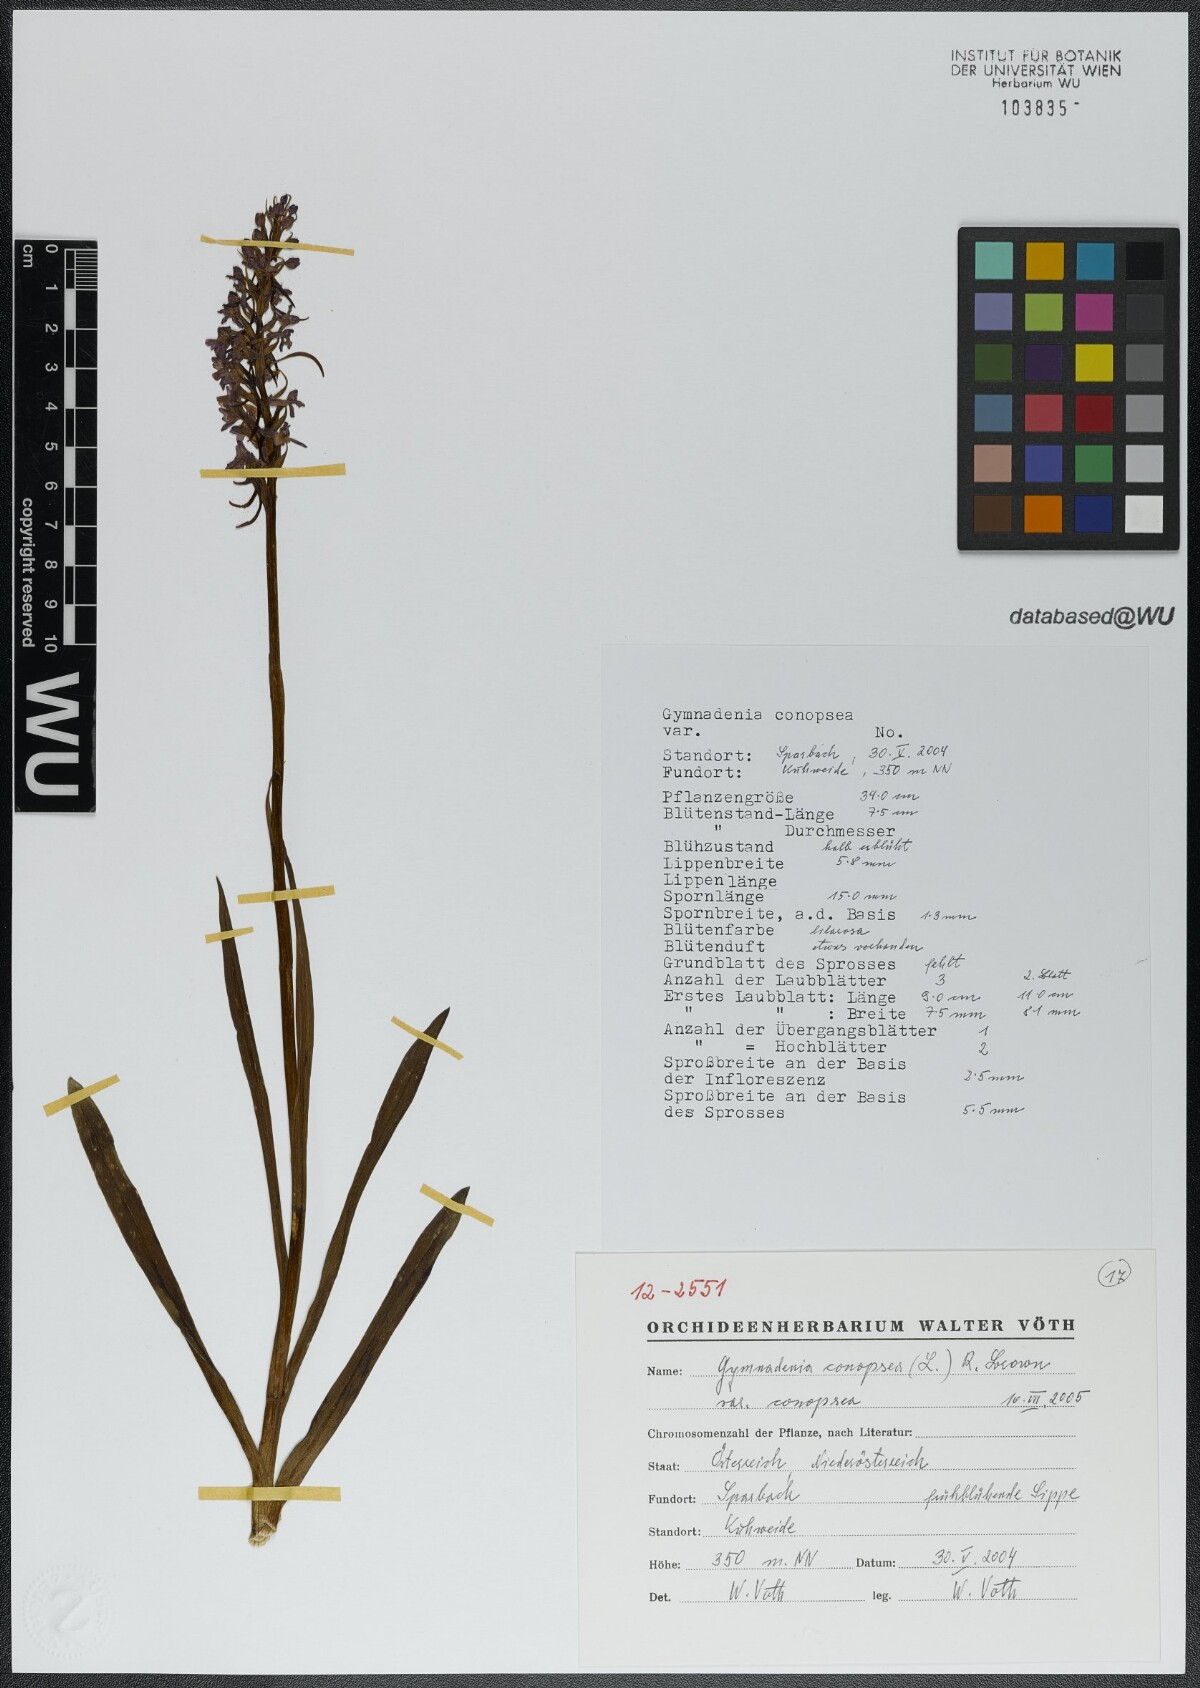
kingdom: Plantae
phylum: Tracheophyta
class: Liliopsida
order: Asparagales
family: Orchidaceae
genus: Gymnadenia
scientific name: Gymnadenia conopsea
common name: Fragrant orchid
